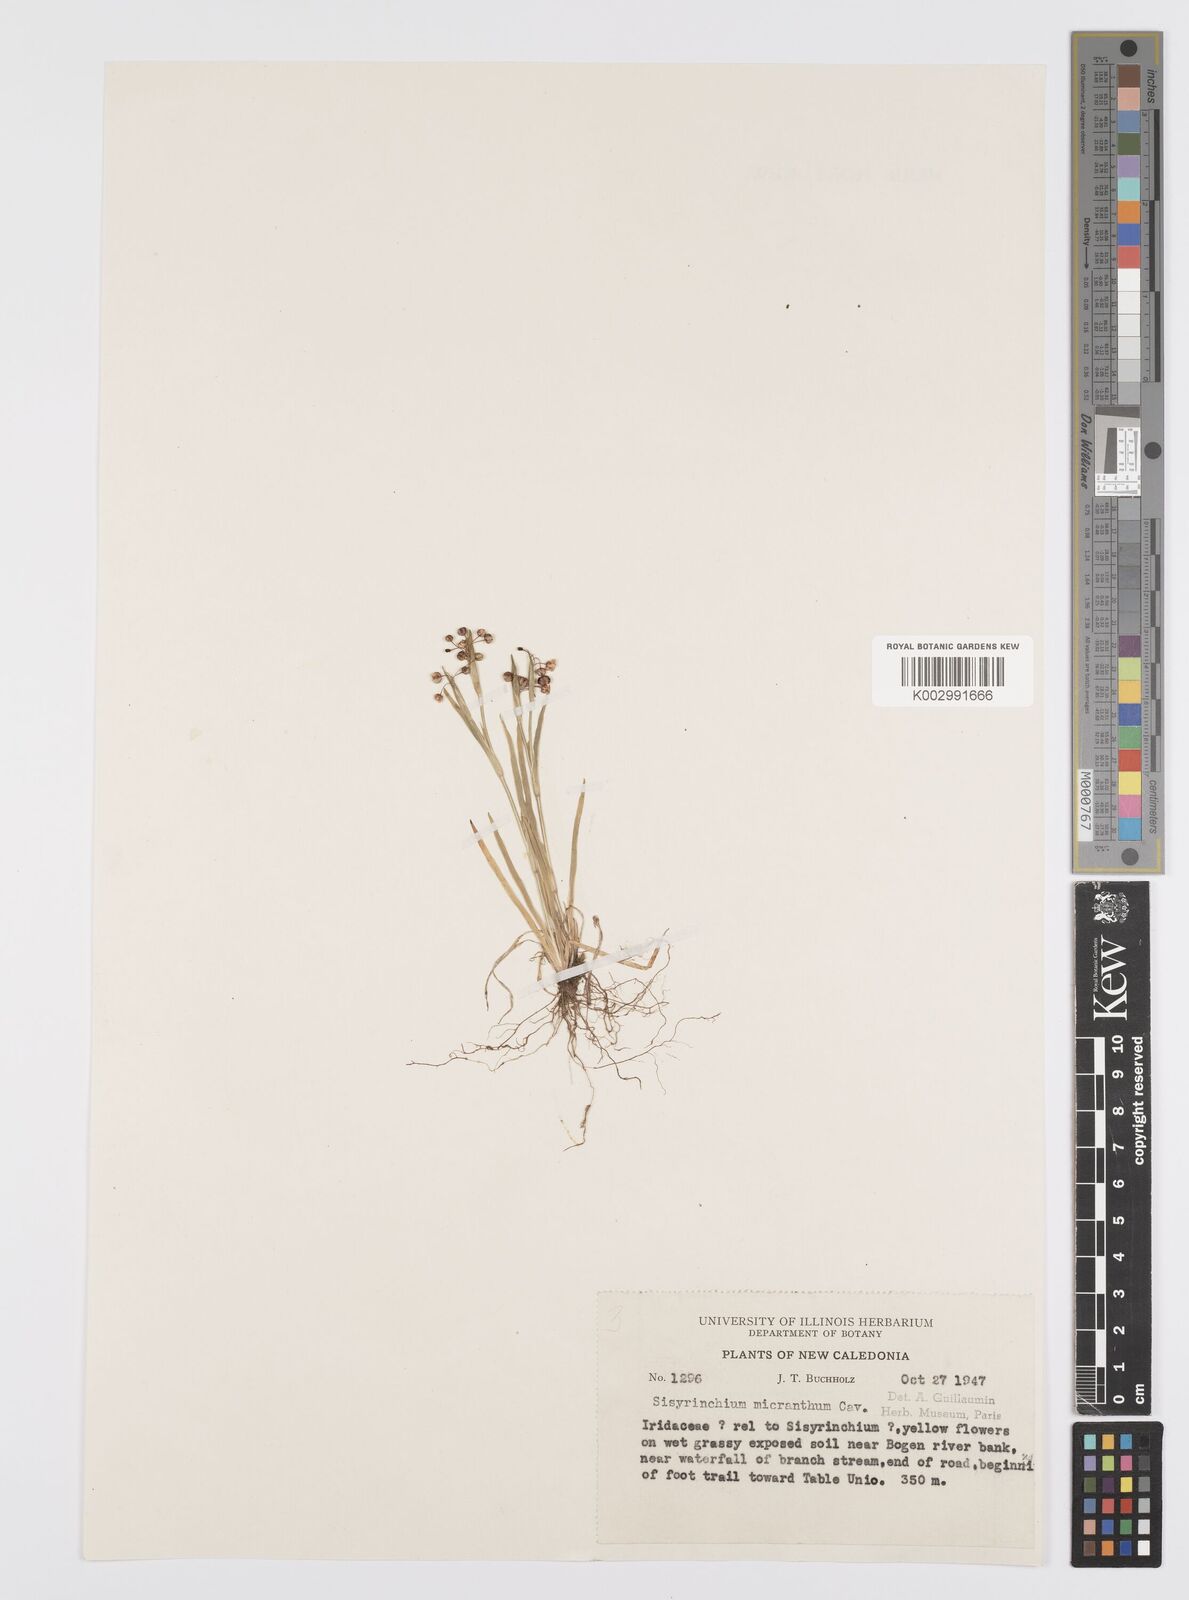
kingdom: Plantae
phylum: Tracheophyta
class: Liliopsida
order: Asparagales
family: Iridaceae
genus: Sisyrinchium
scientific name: Sisyrinchium micranthum
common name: Bermuda pigroot
